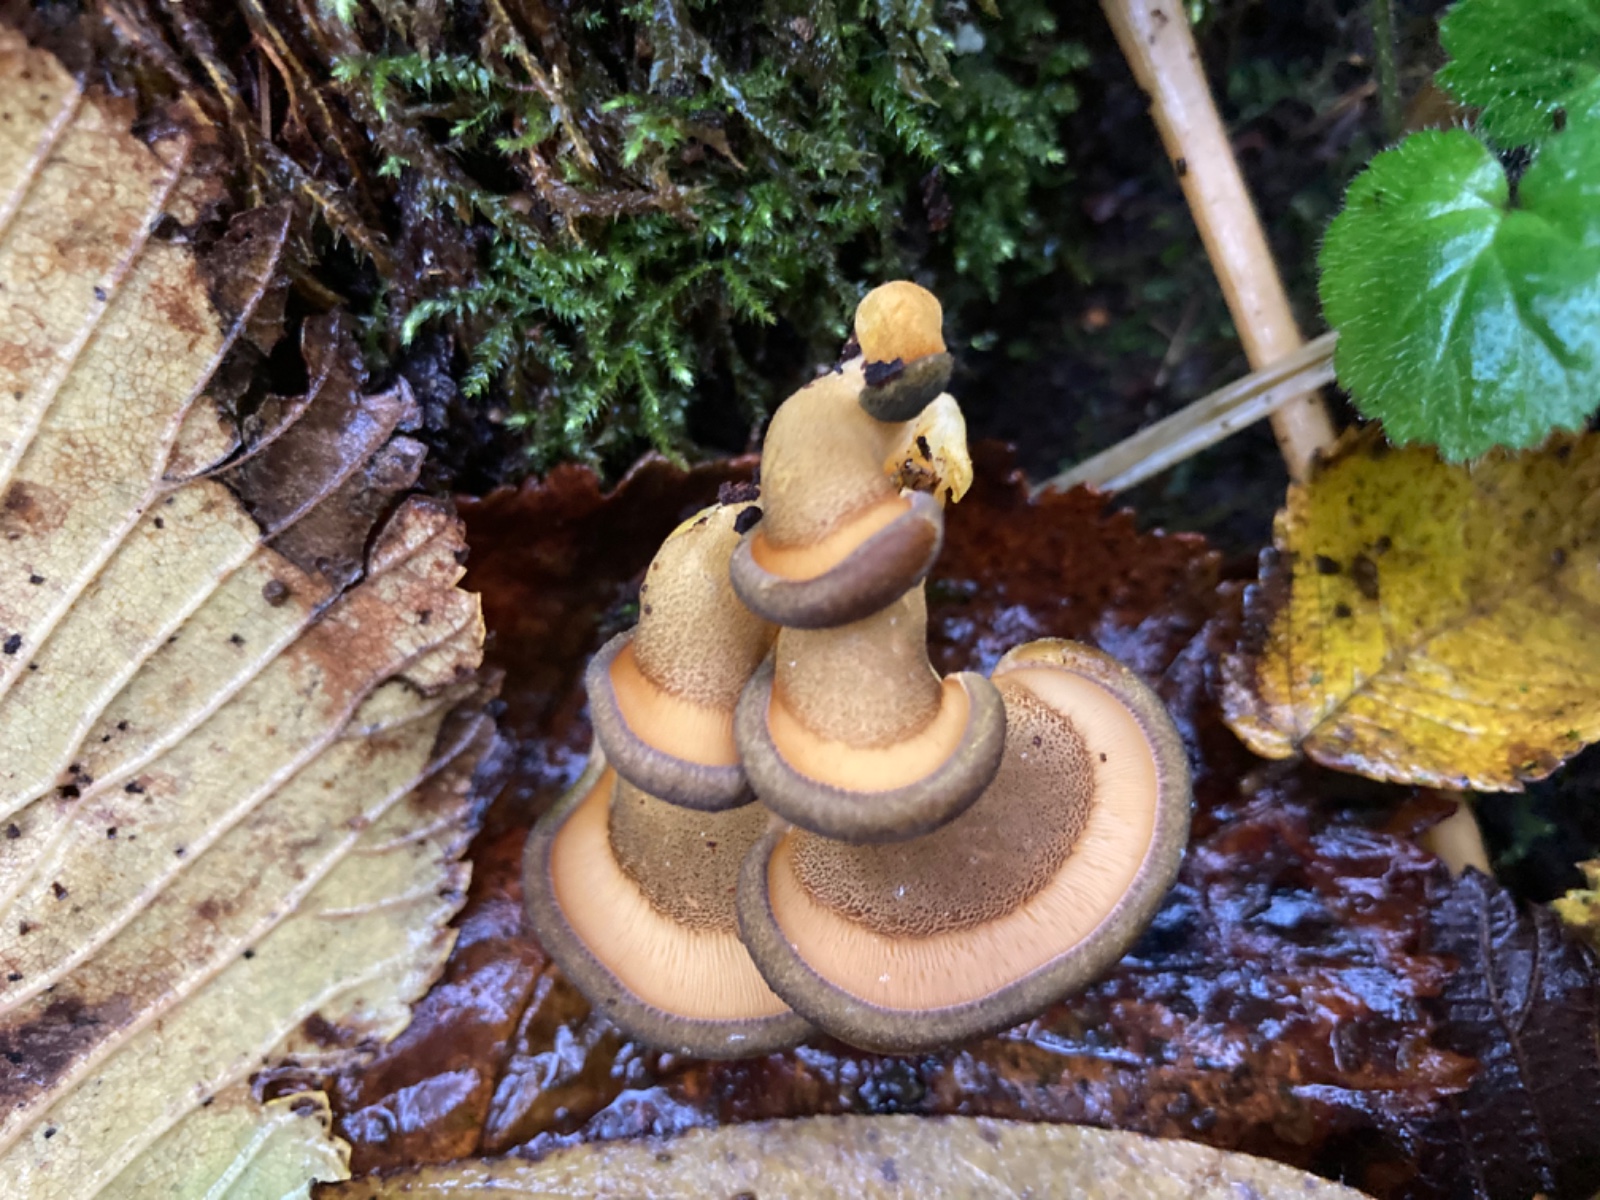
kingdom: Fungi
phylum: Basidiomycota
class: Agaricomycetes
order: Agaricales
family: Sarcomyxaceae
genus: Sarcomyxa
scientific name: Sarcomyxa serotina
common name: gummihat
